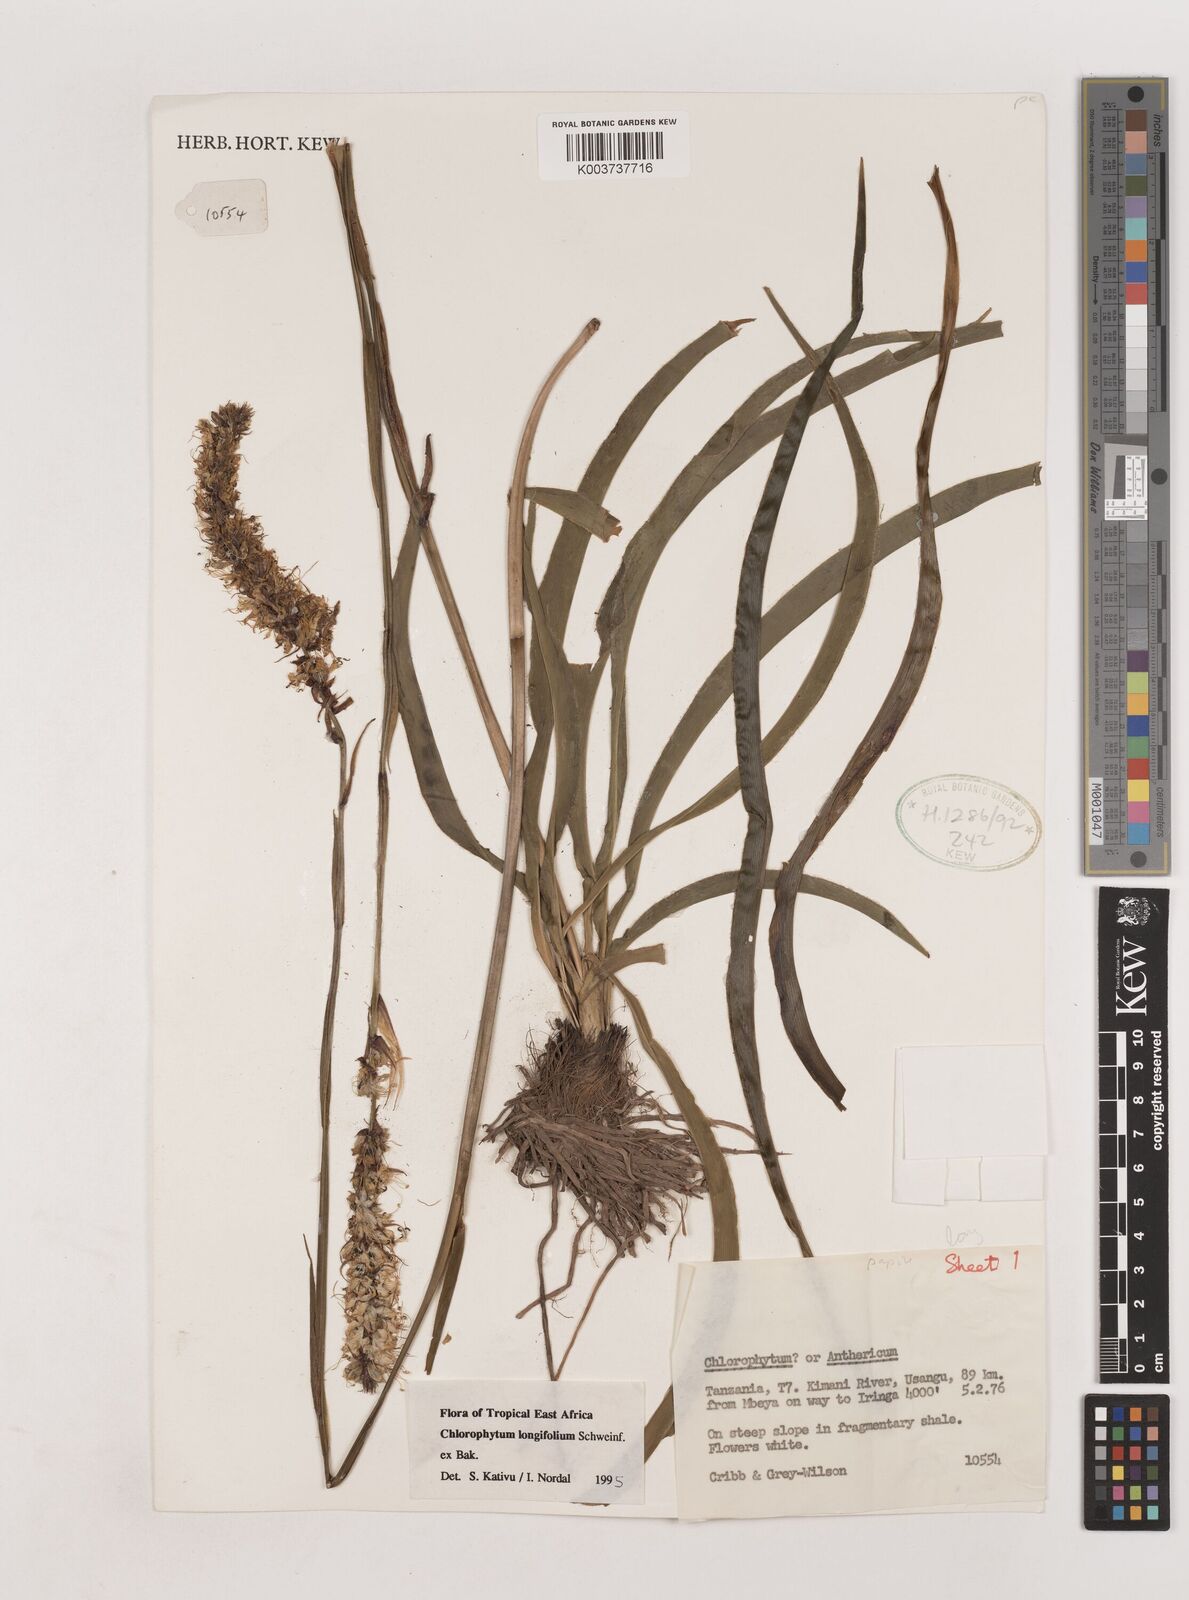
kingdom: Plantae
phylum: Tracheophyta
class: Liliopsida
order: Asparagales
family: Asparagaceae
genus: Chlorophytum
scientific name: Chlorophytum longifolium
